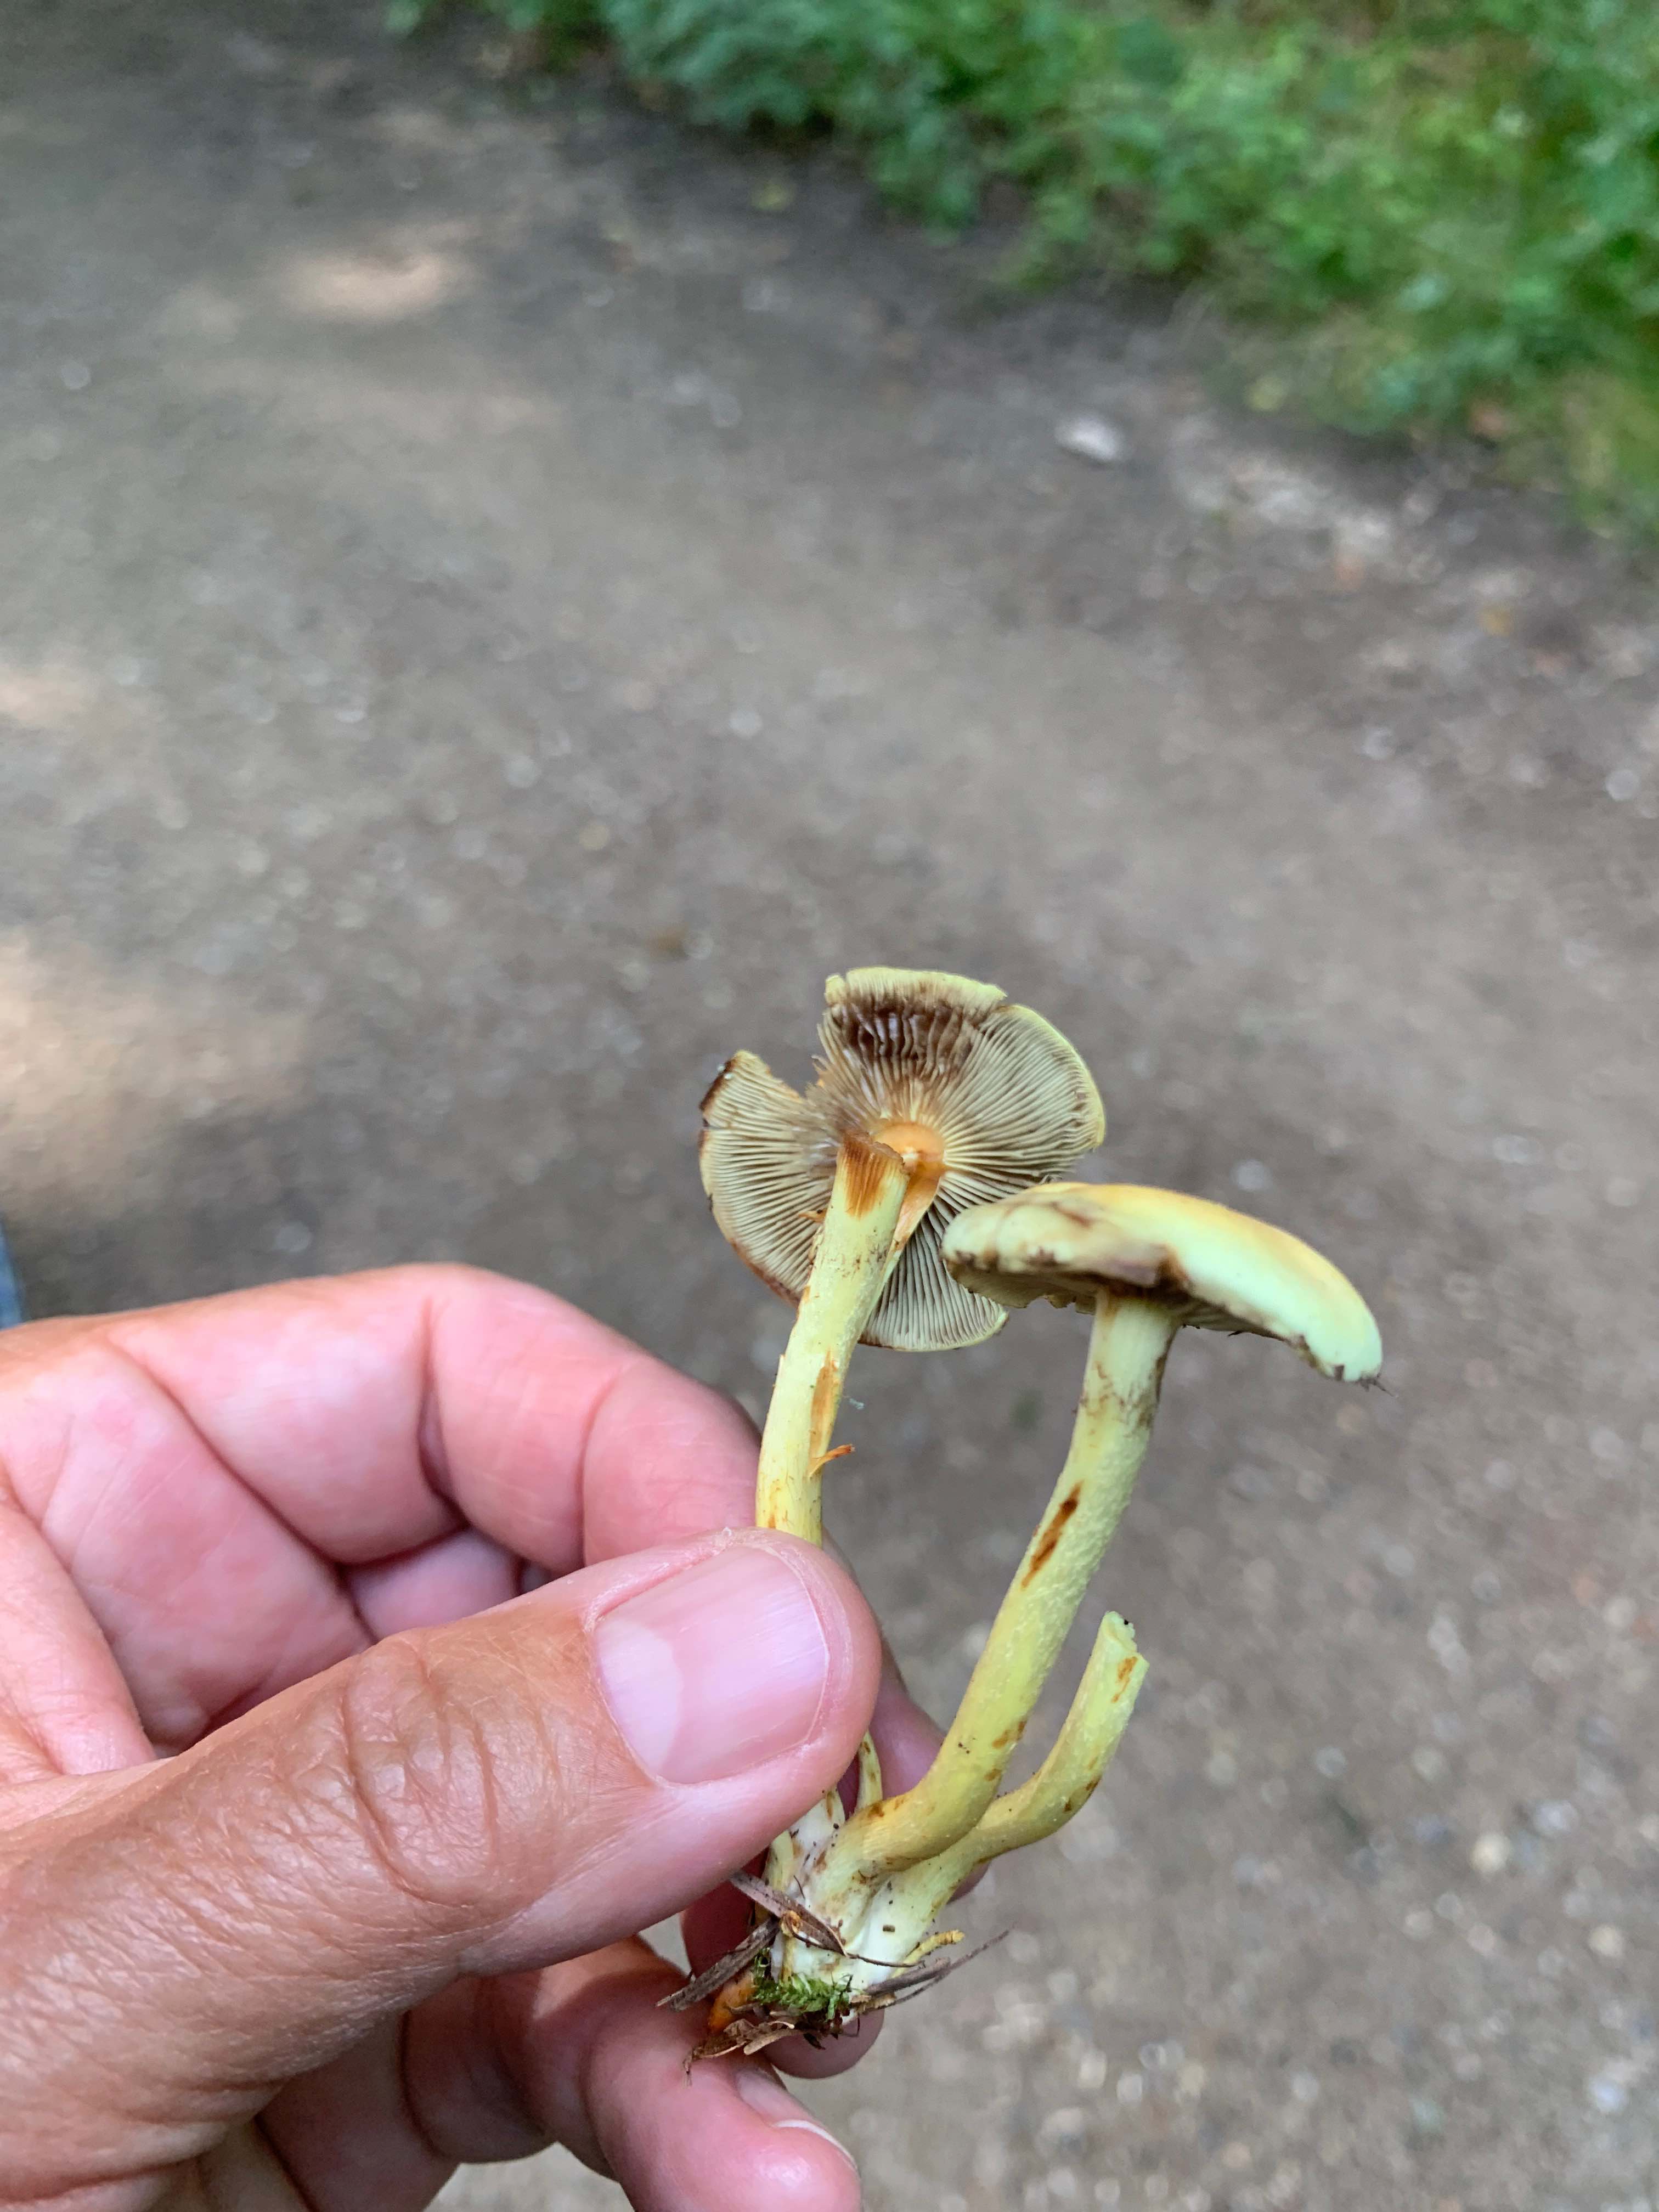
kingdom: Fungi
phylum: Basidiomycota
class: Agaricomycetes
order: Agaricales
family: Strophariaceae
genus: Hypholoma
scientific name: Hypholoma fasciculare
